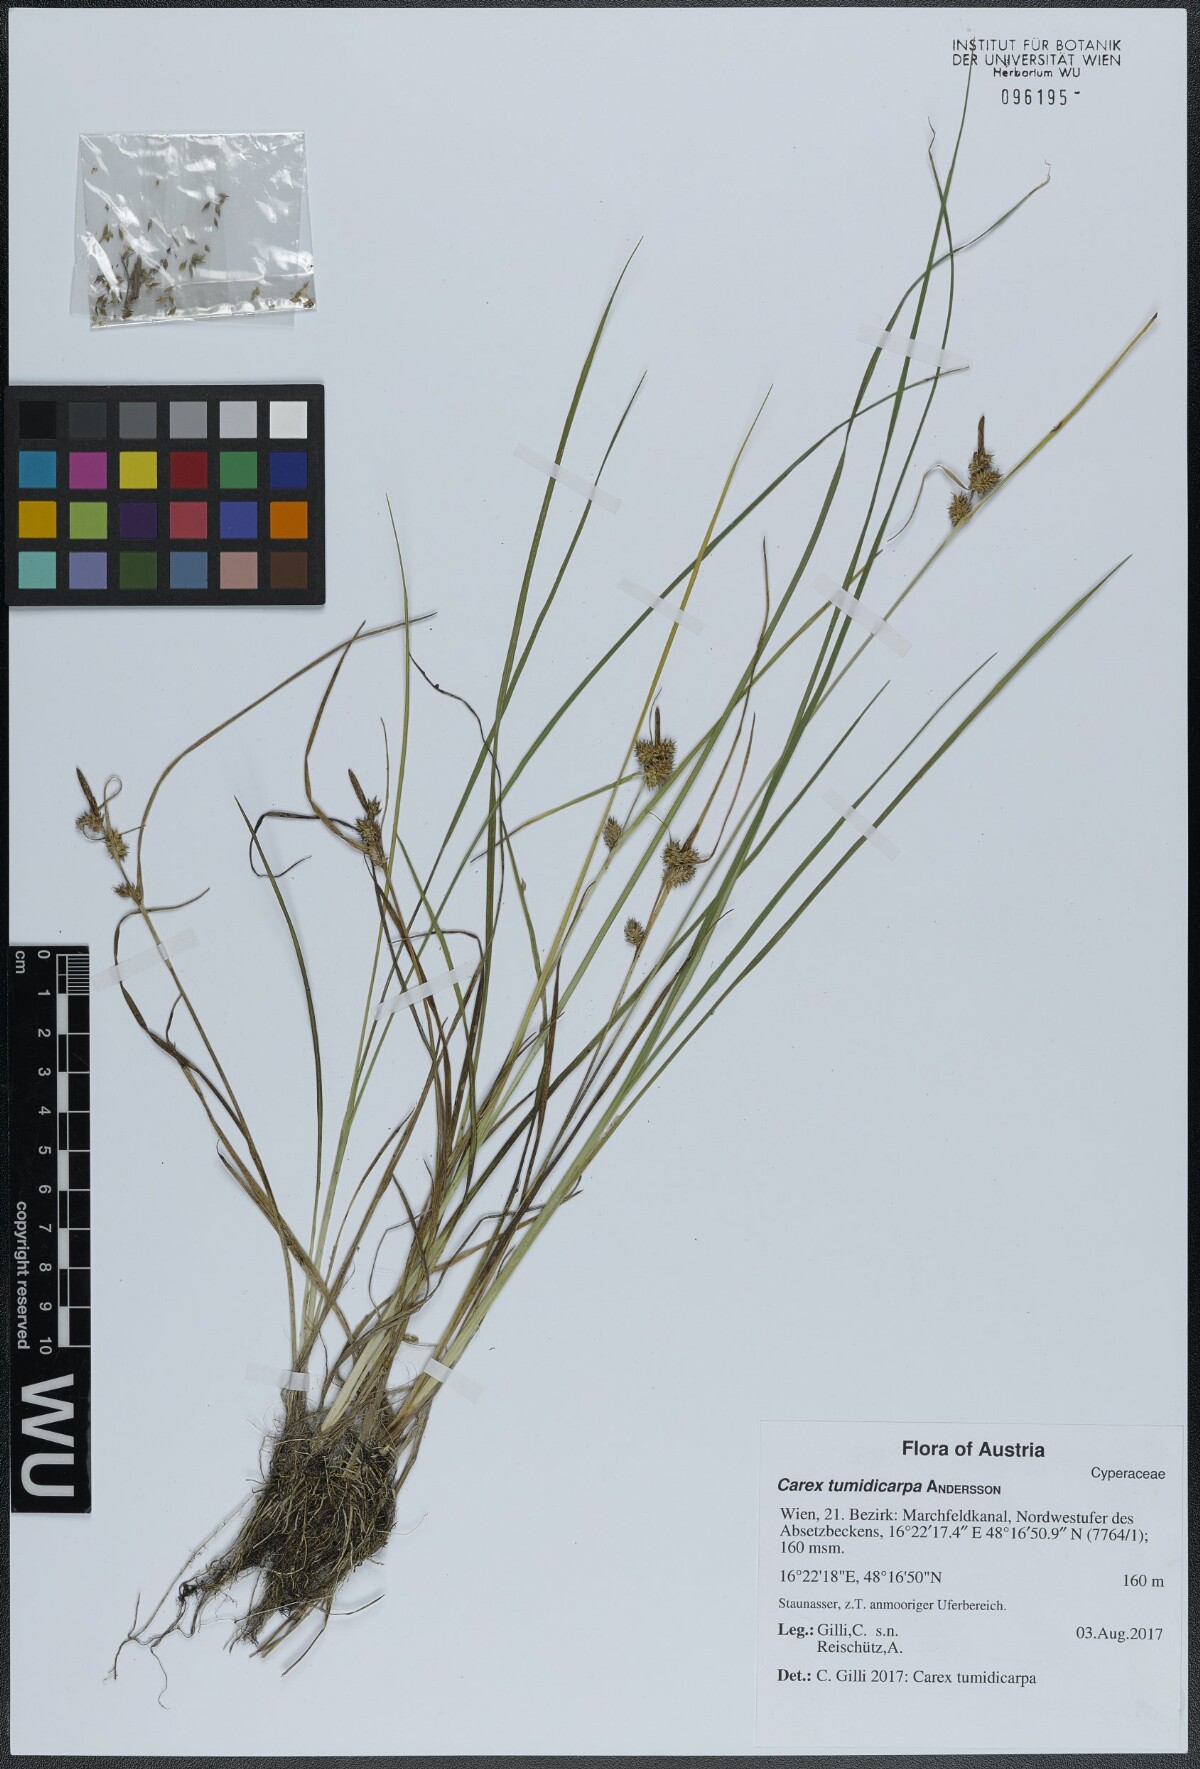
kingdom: Plantae
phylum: Tracheophyta
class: Liliopsida
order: Poales
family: Cyperaceae
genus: Carex
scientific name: Carex oederi
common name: Common & small-fruited yellow-sedge
